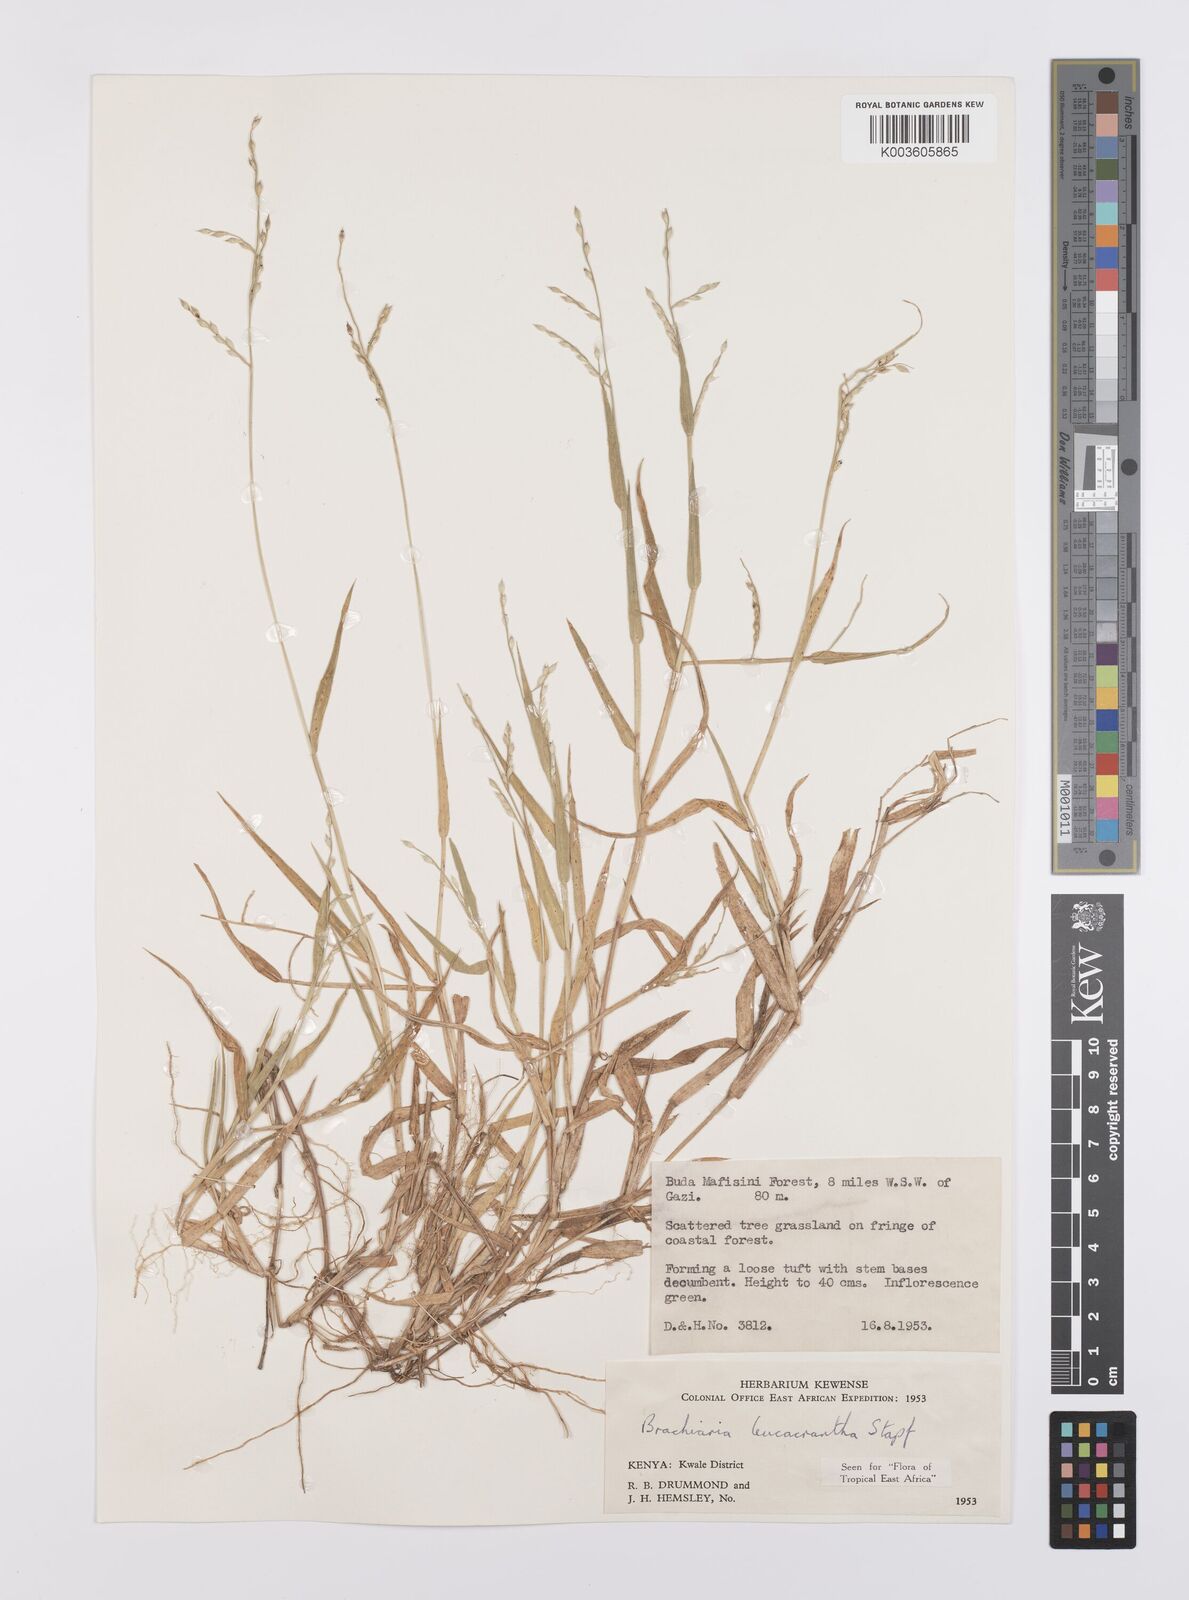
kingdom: Plantae
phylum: Tracheophyta
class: Liliopsida
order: Poales
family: Poaceae
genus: Urochloa
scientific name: Urochloa xantholeuca
